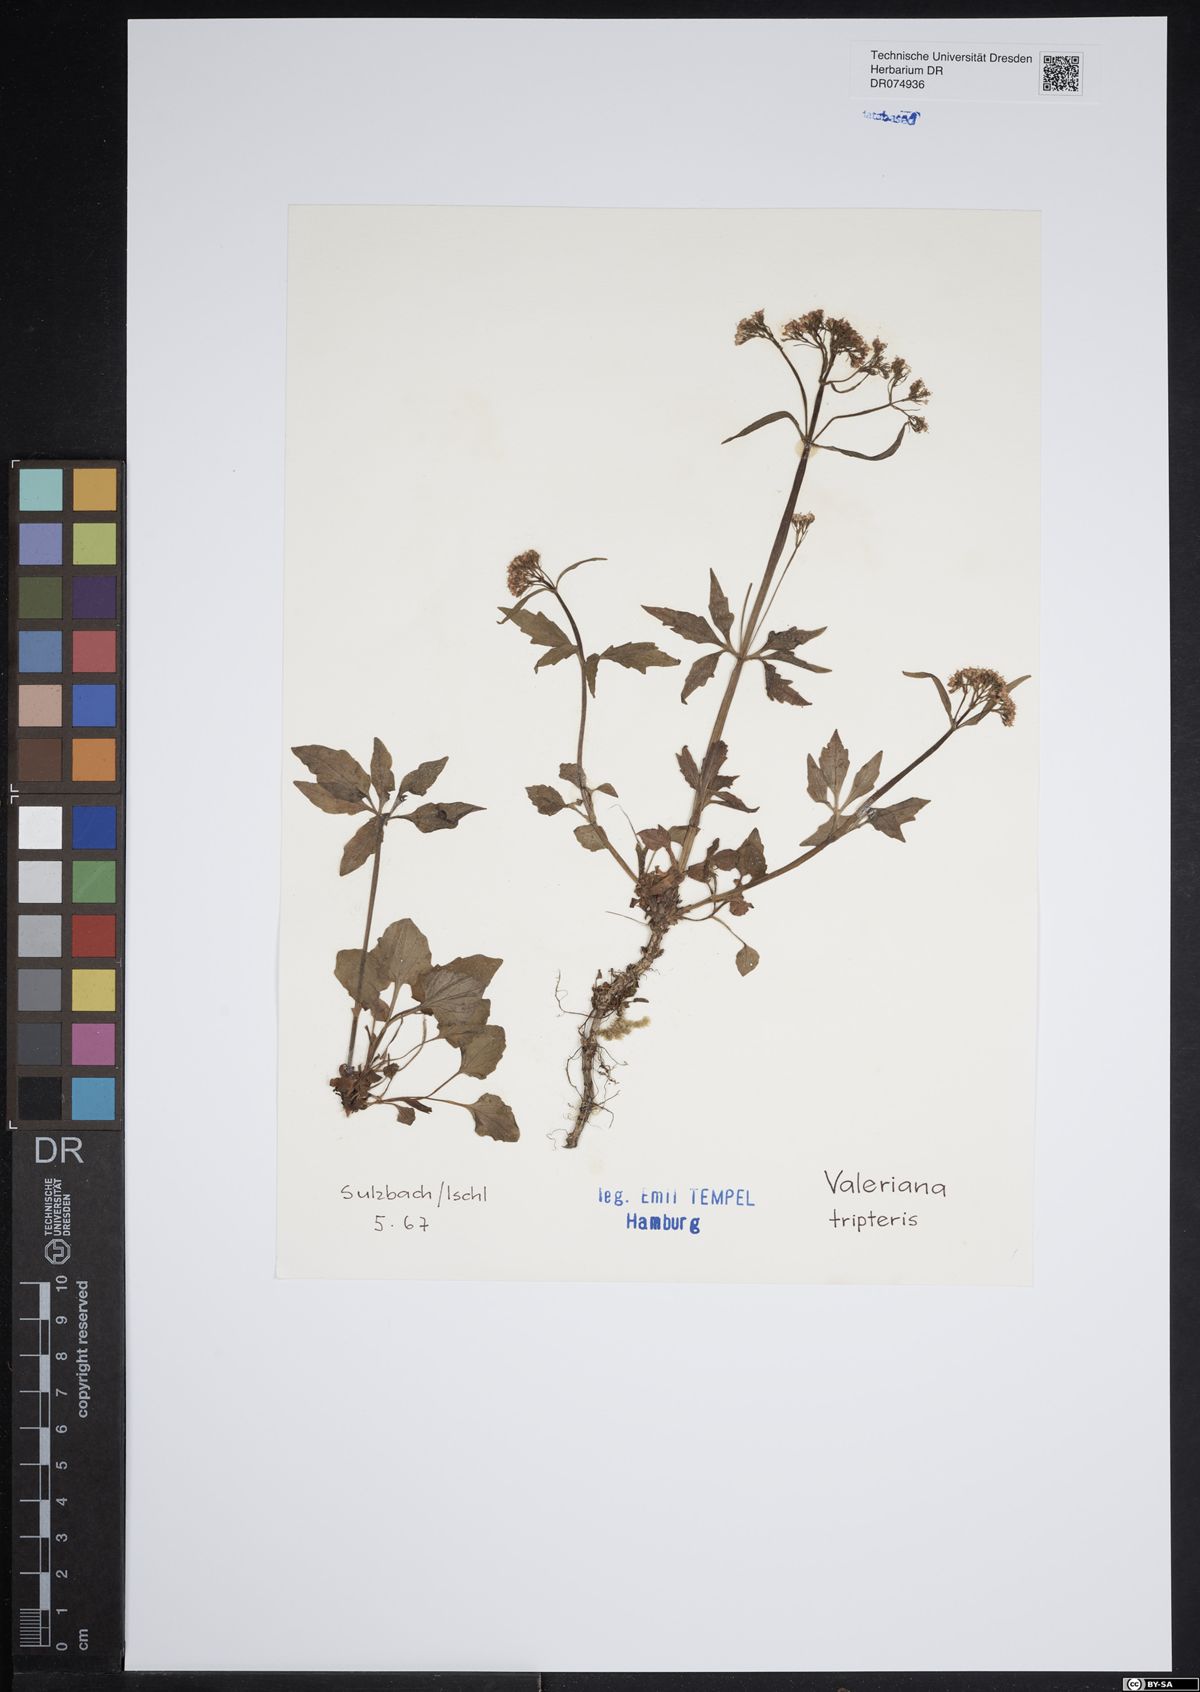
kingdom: Plantae
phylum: Tracheophyta
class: Magnoliopsida
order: Dipsacales
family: Caprifoliaceae
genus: Valeriana
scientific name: Valeriana tripteris
